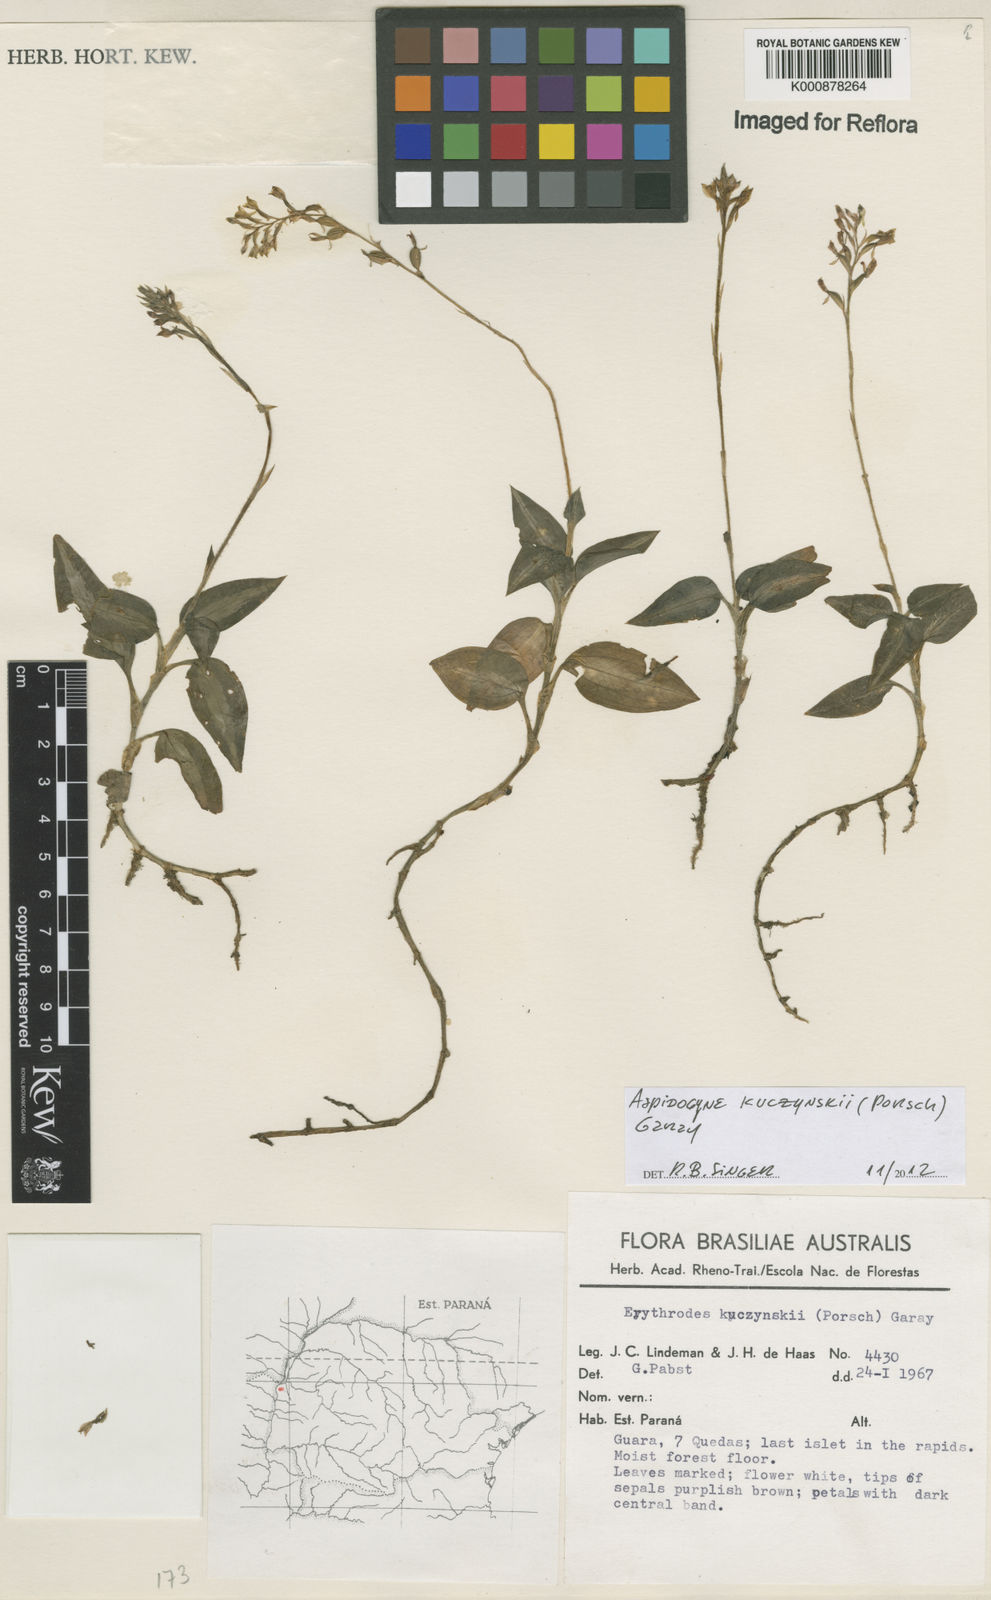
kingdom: Plantae
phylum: Tracheophyta
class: Liliopsida
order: Asparagales
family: Orchidaceae
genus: Aspidogyne
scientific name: Aspidogyne kuczynskii
